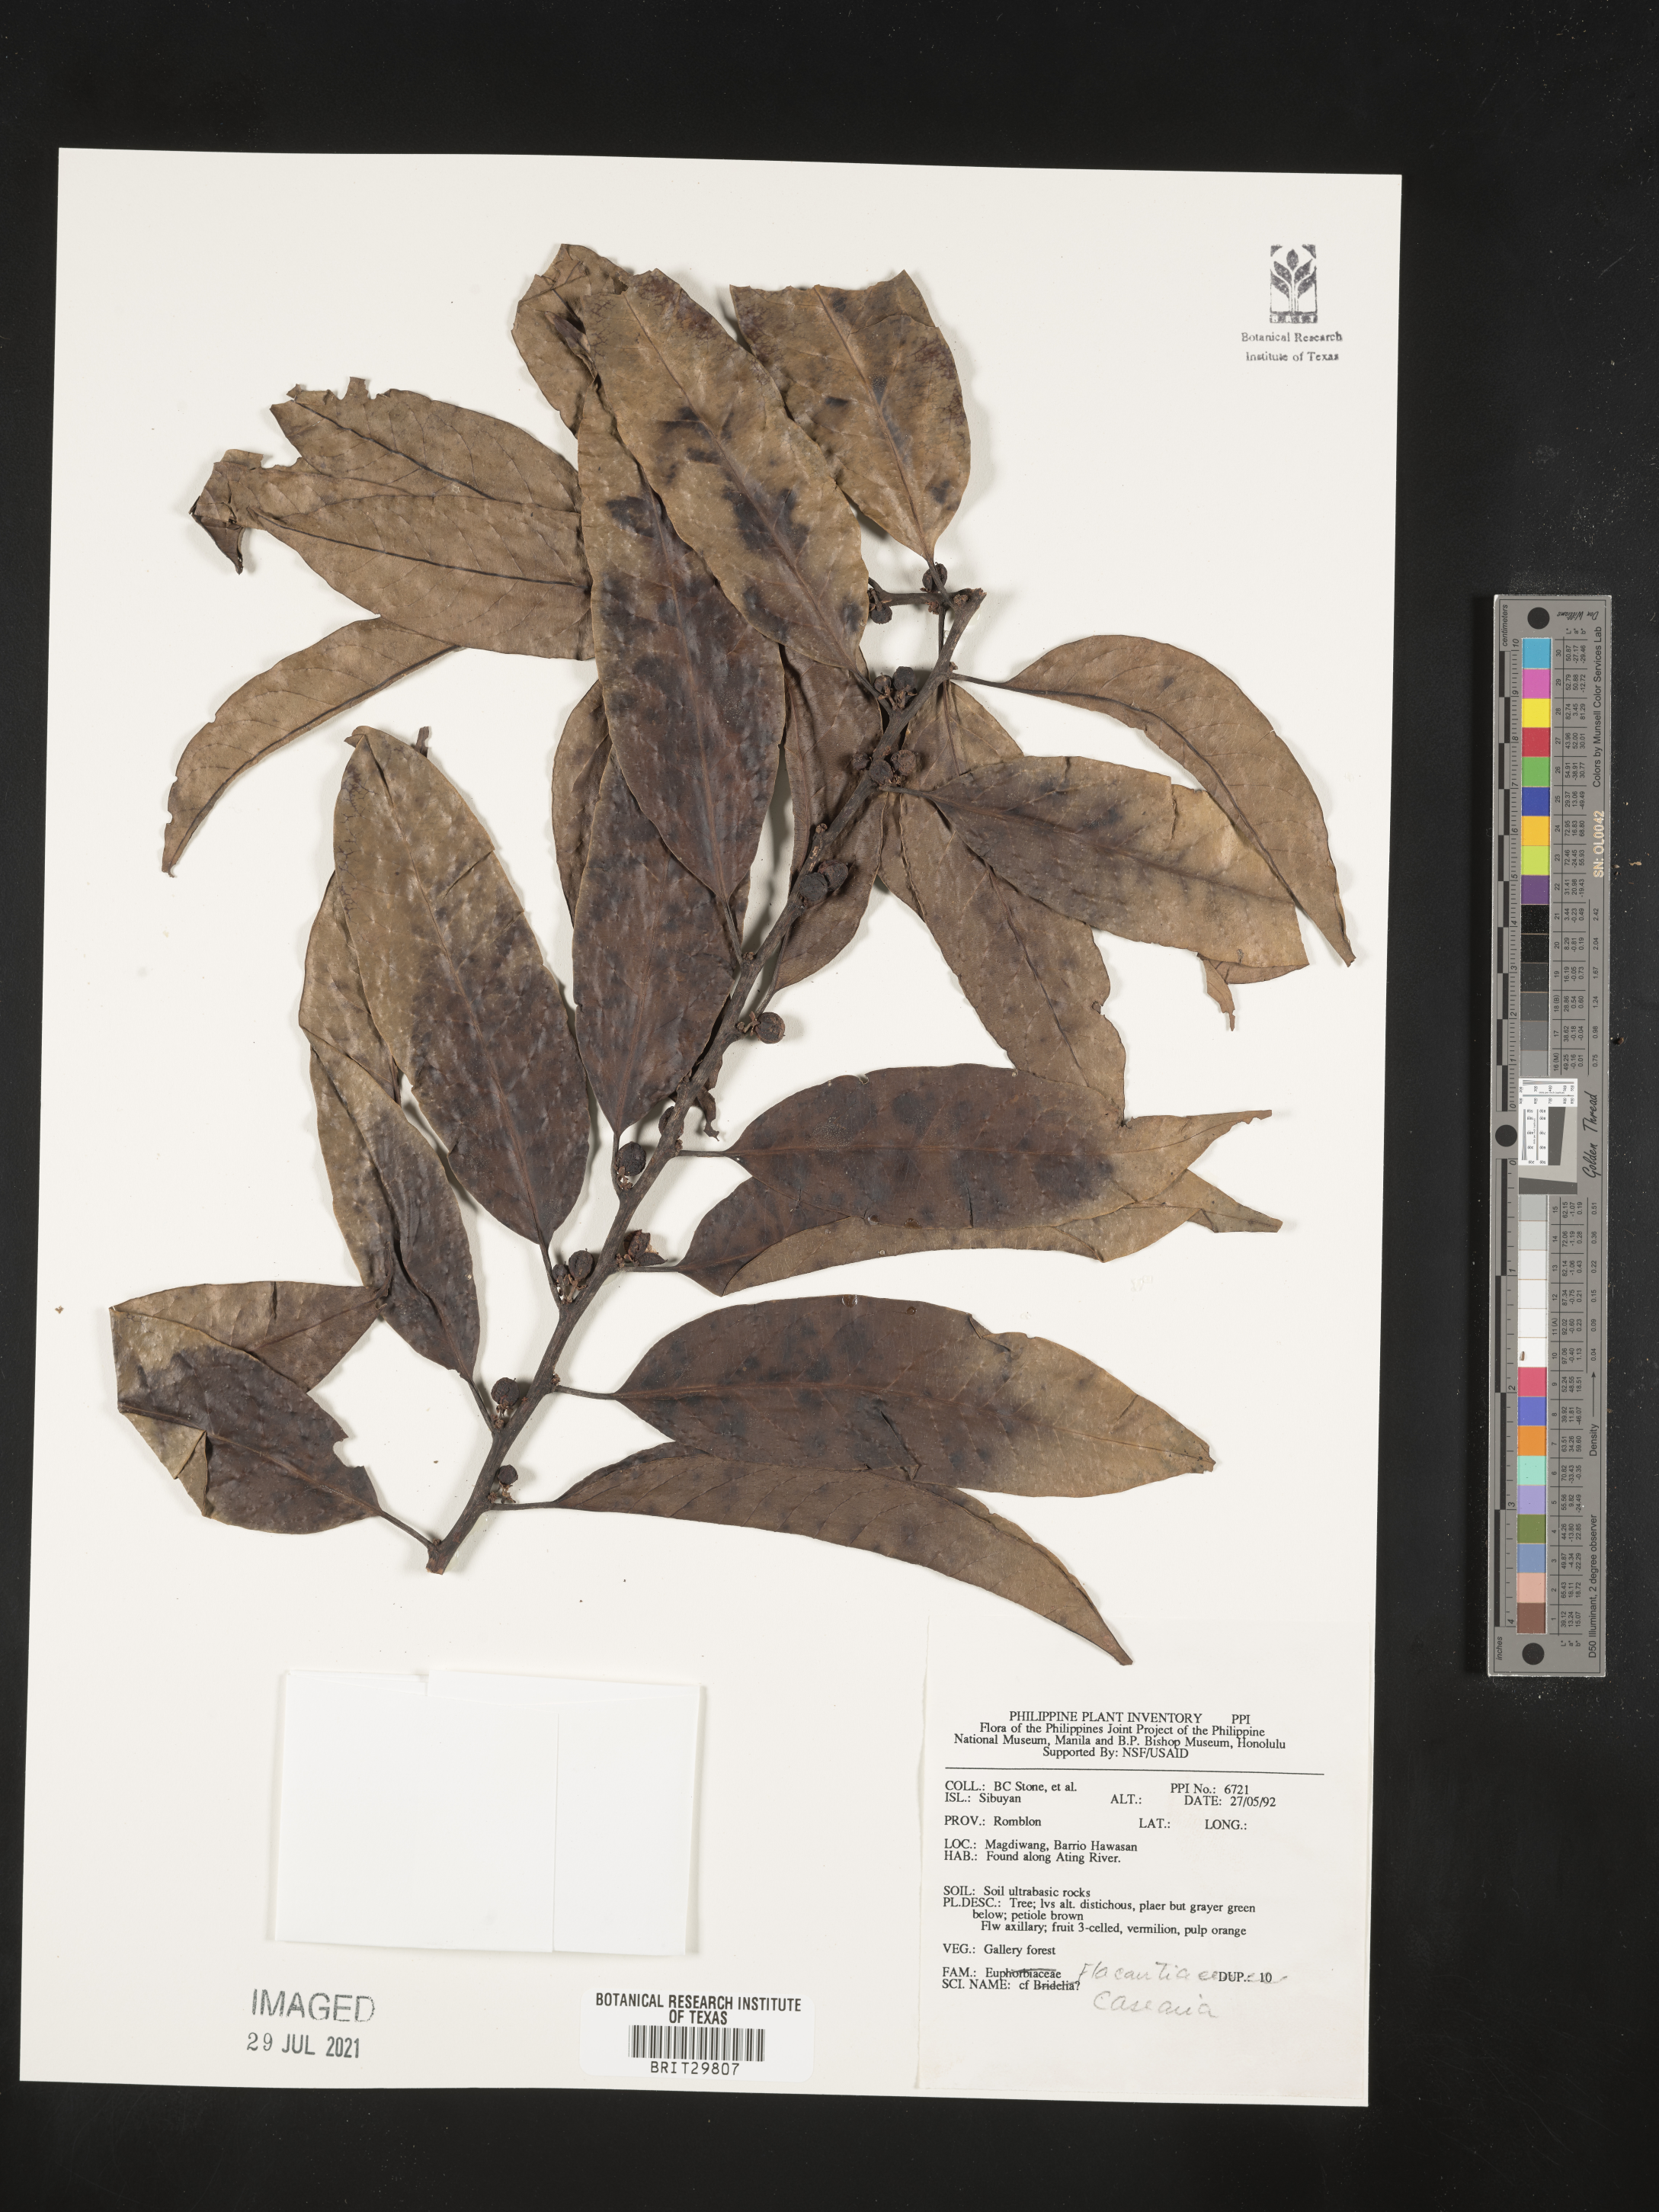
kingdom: Plantae
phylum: Tracheophyta
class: Magnoliopsida
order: Malpighiales
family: Salicaceae
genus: Casearia
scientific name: Casearia
